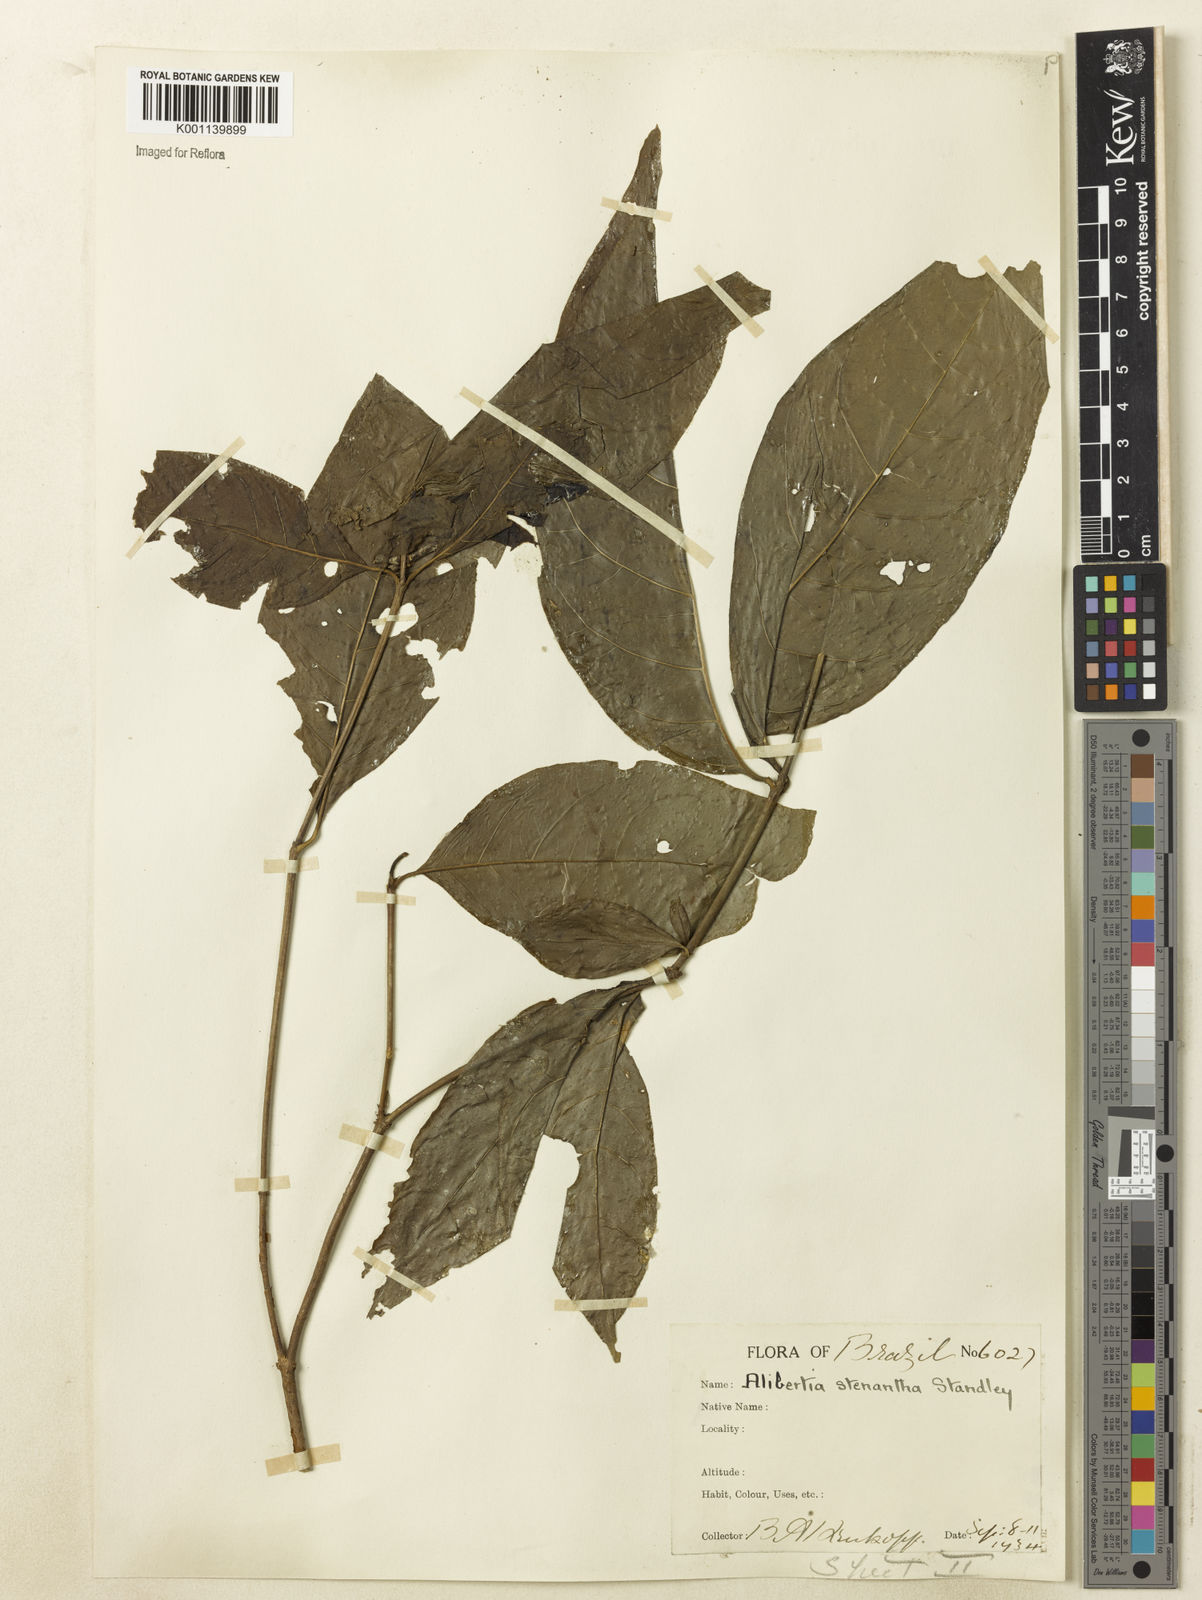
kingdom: Plantae
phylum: Tracheophyta
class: Magnoliopsida
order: Gentianales
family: Rubiaceae
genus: Alibertia
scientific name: Alibertia bertierifolia
